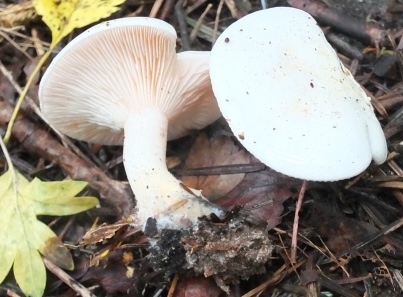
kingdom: Fungi
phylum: Basidiomycota
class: Agaricomycetes
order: Agaricales
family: Tricholomataceae
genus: Pseudoclitopilus
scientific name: Pseudoclitopilus rhodoleucus
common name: rosabladet tragtridderhat
